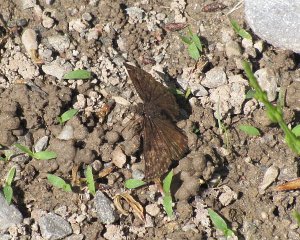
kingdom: Animalia
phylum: Arthropoda
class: Insecta
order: Lepidoptera
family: Hesperiidae
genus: Gesta
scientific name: Gesta
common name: Juvenal's Duskywing
